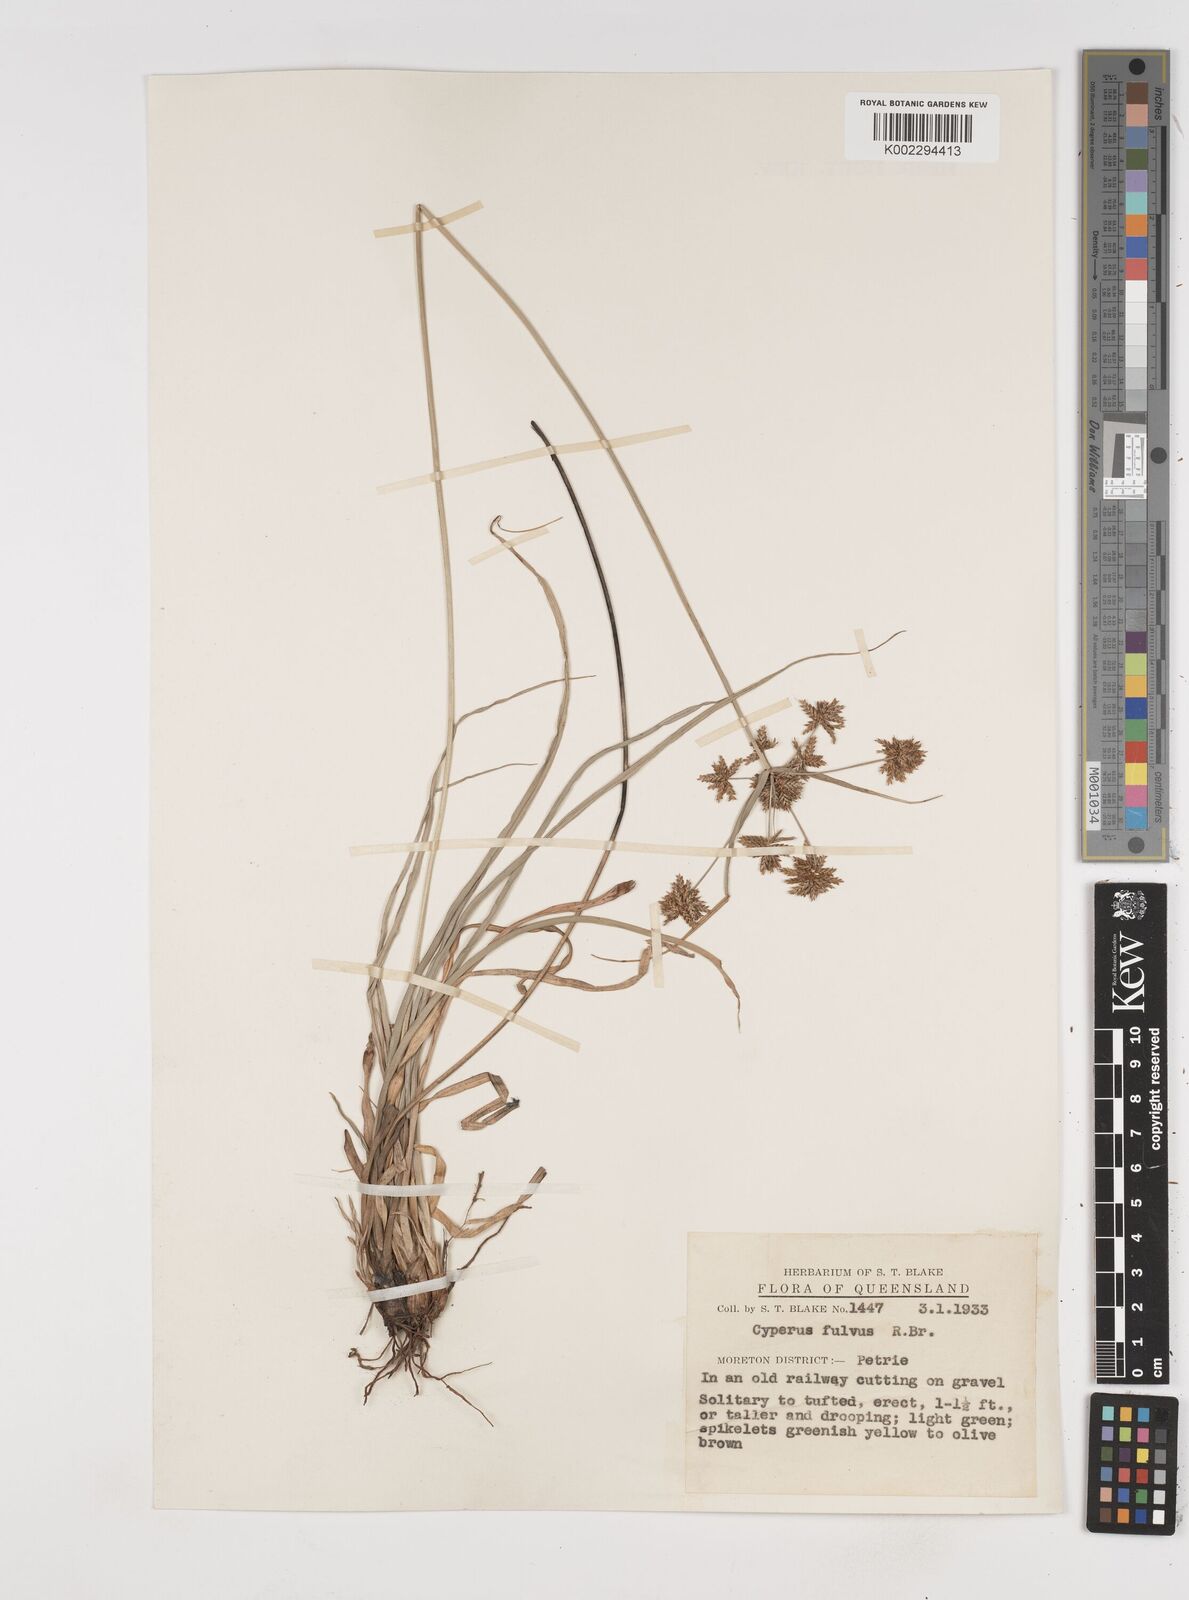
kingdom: Plantae
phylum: Tracheophyta
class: Liliopsida
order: Poales
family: Cyperaceae
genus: Cyperus
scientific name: Cyperus fulvus
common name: Sticky sedge
